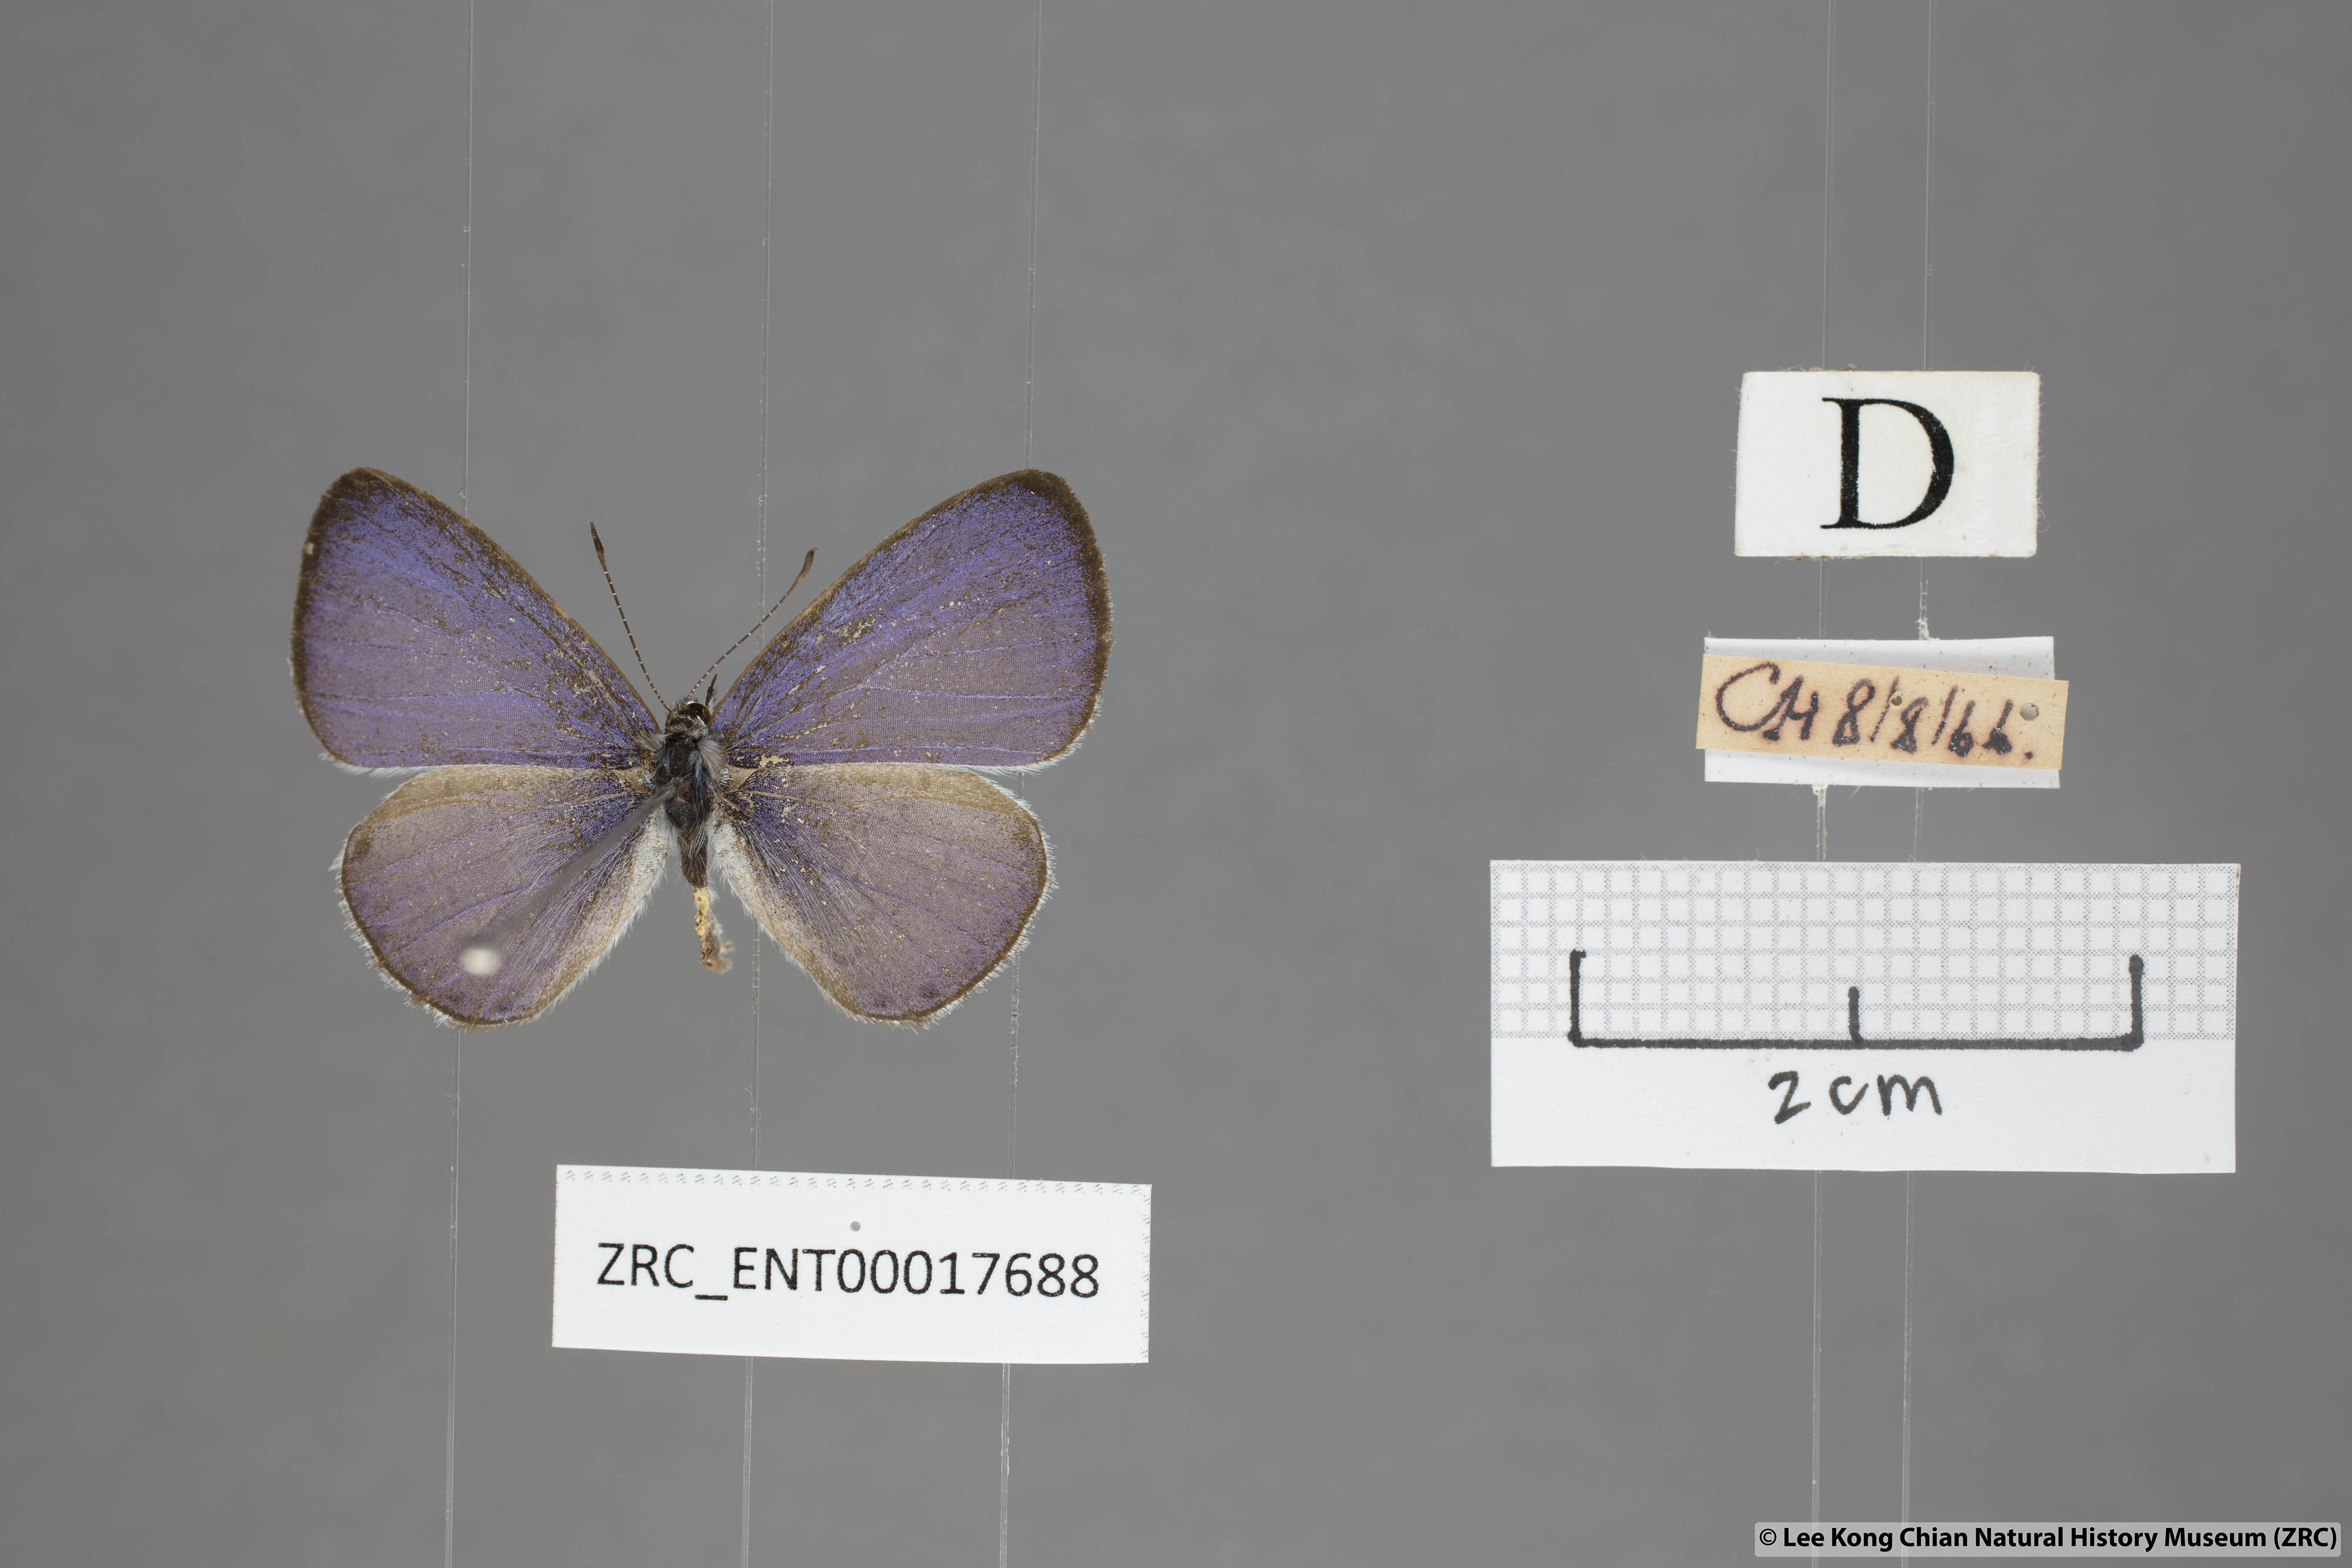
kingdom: Animalia
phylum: Arthropoda
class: Insecta
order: Lepidoptera
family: Lycaenidae
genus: Udara
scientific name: Udara camenae
